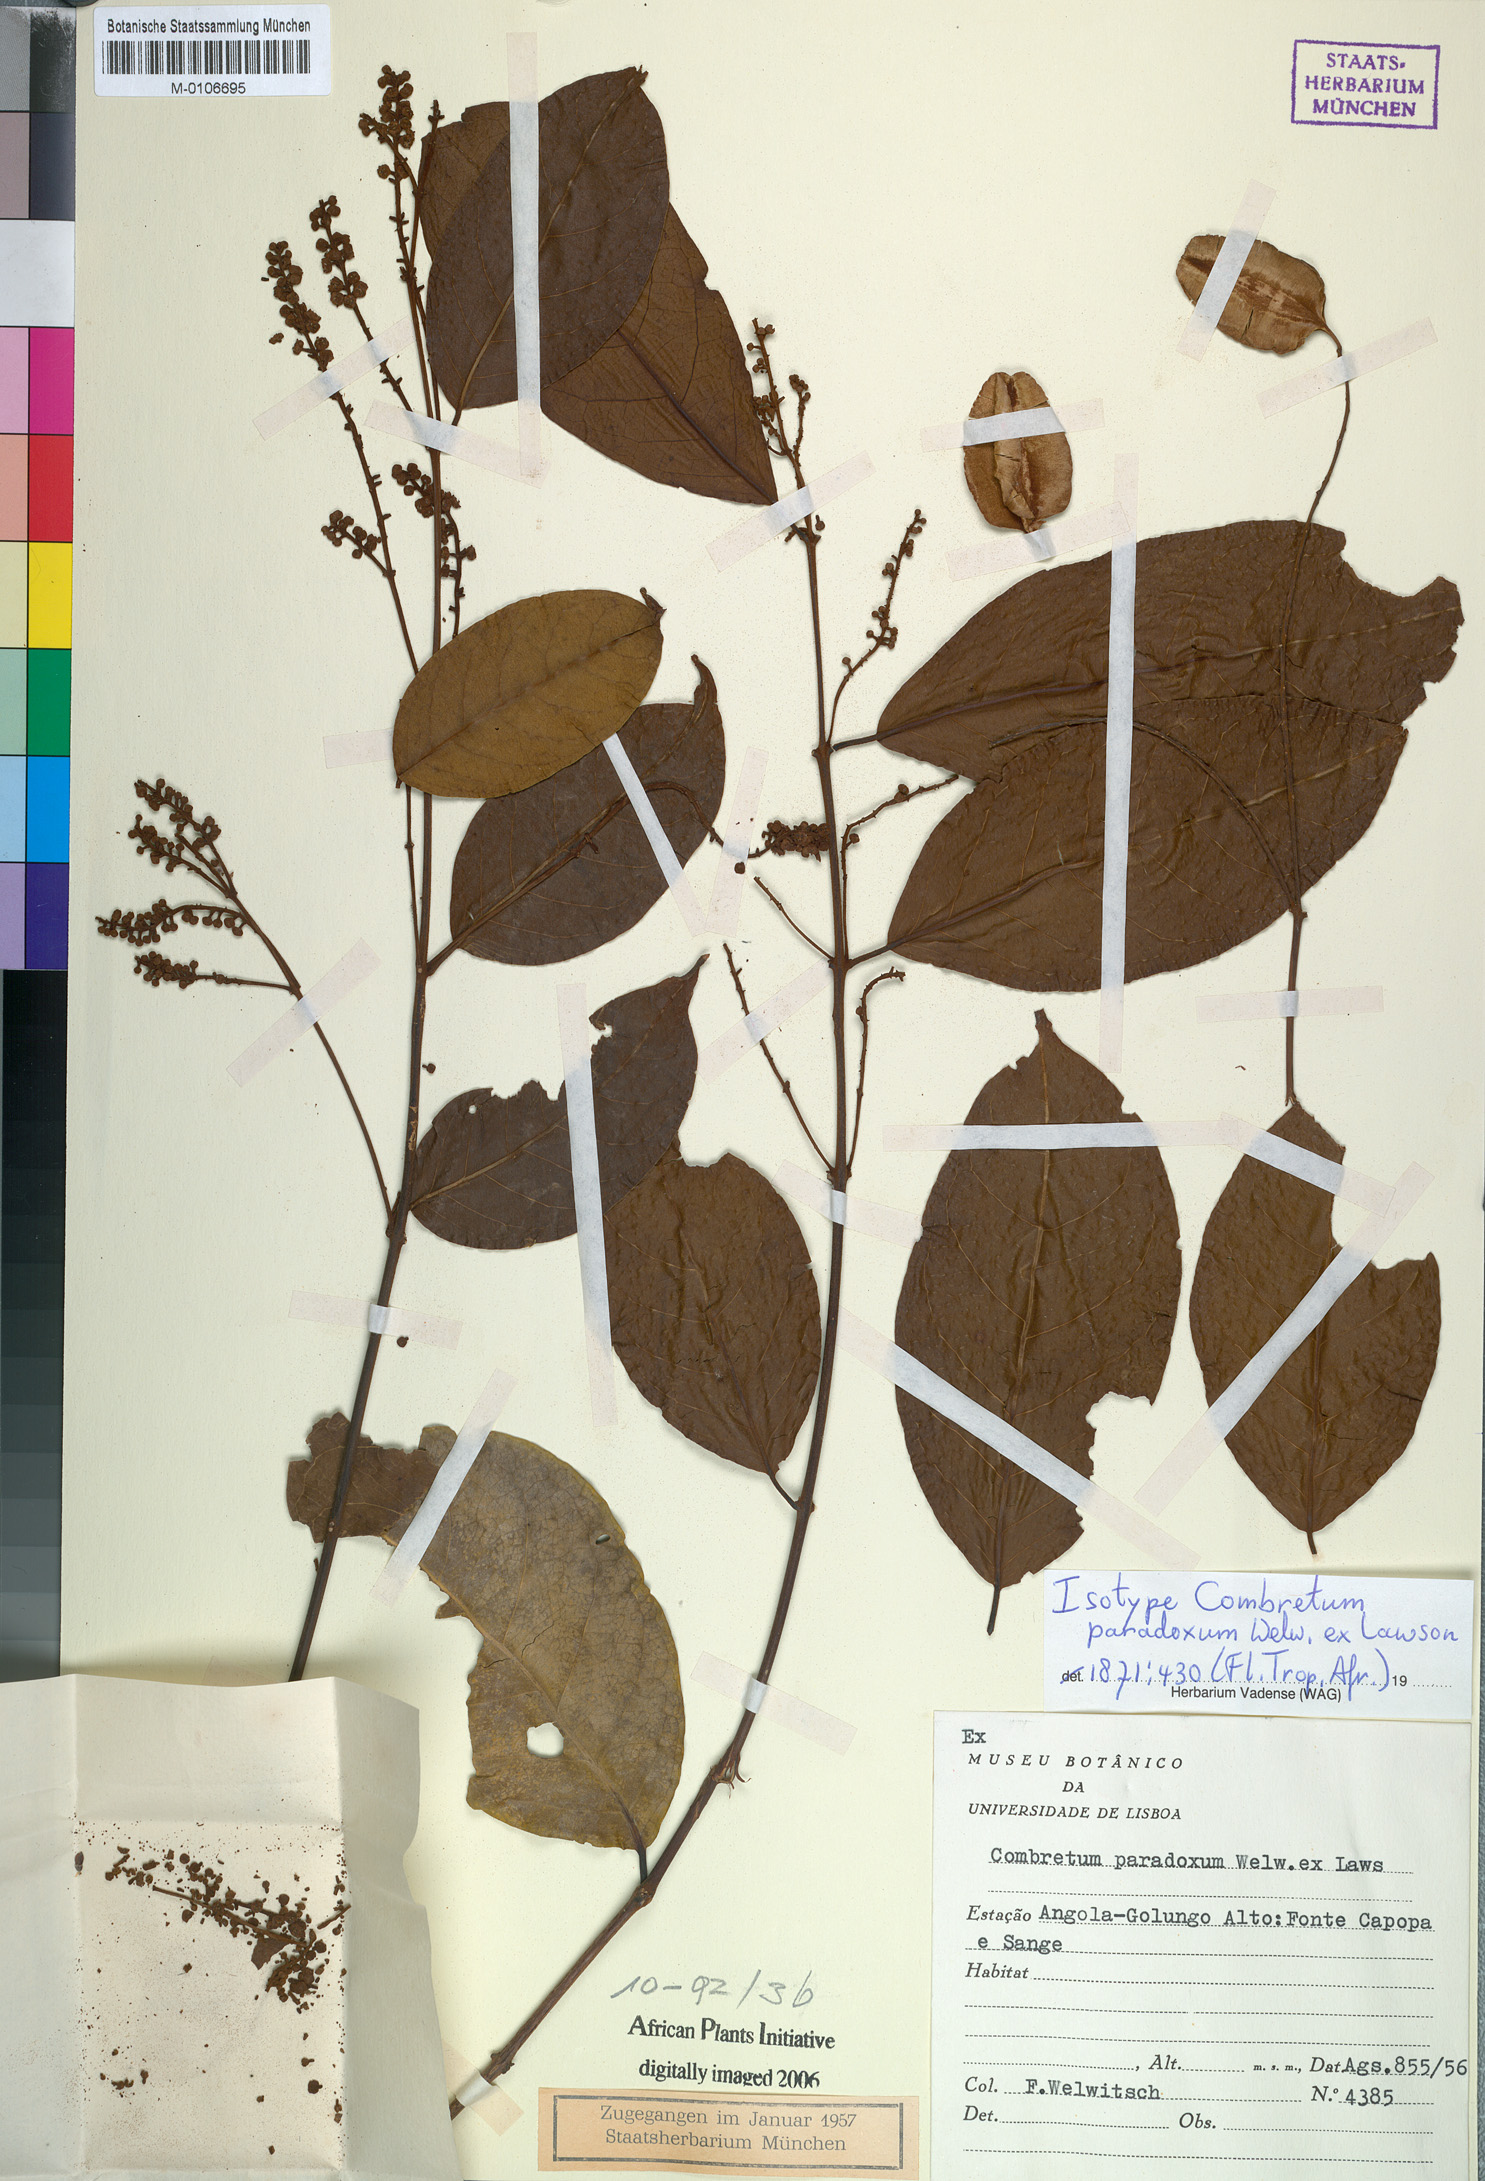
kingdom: Plantae
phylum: Tracheophyta
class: Magnoliopsida
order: Myrtales
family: Combretaceae
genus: Combretum
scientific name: Combretum paradoxum
